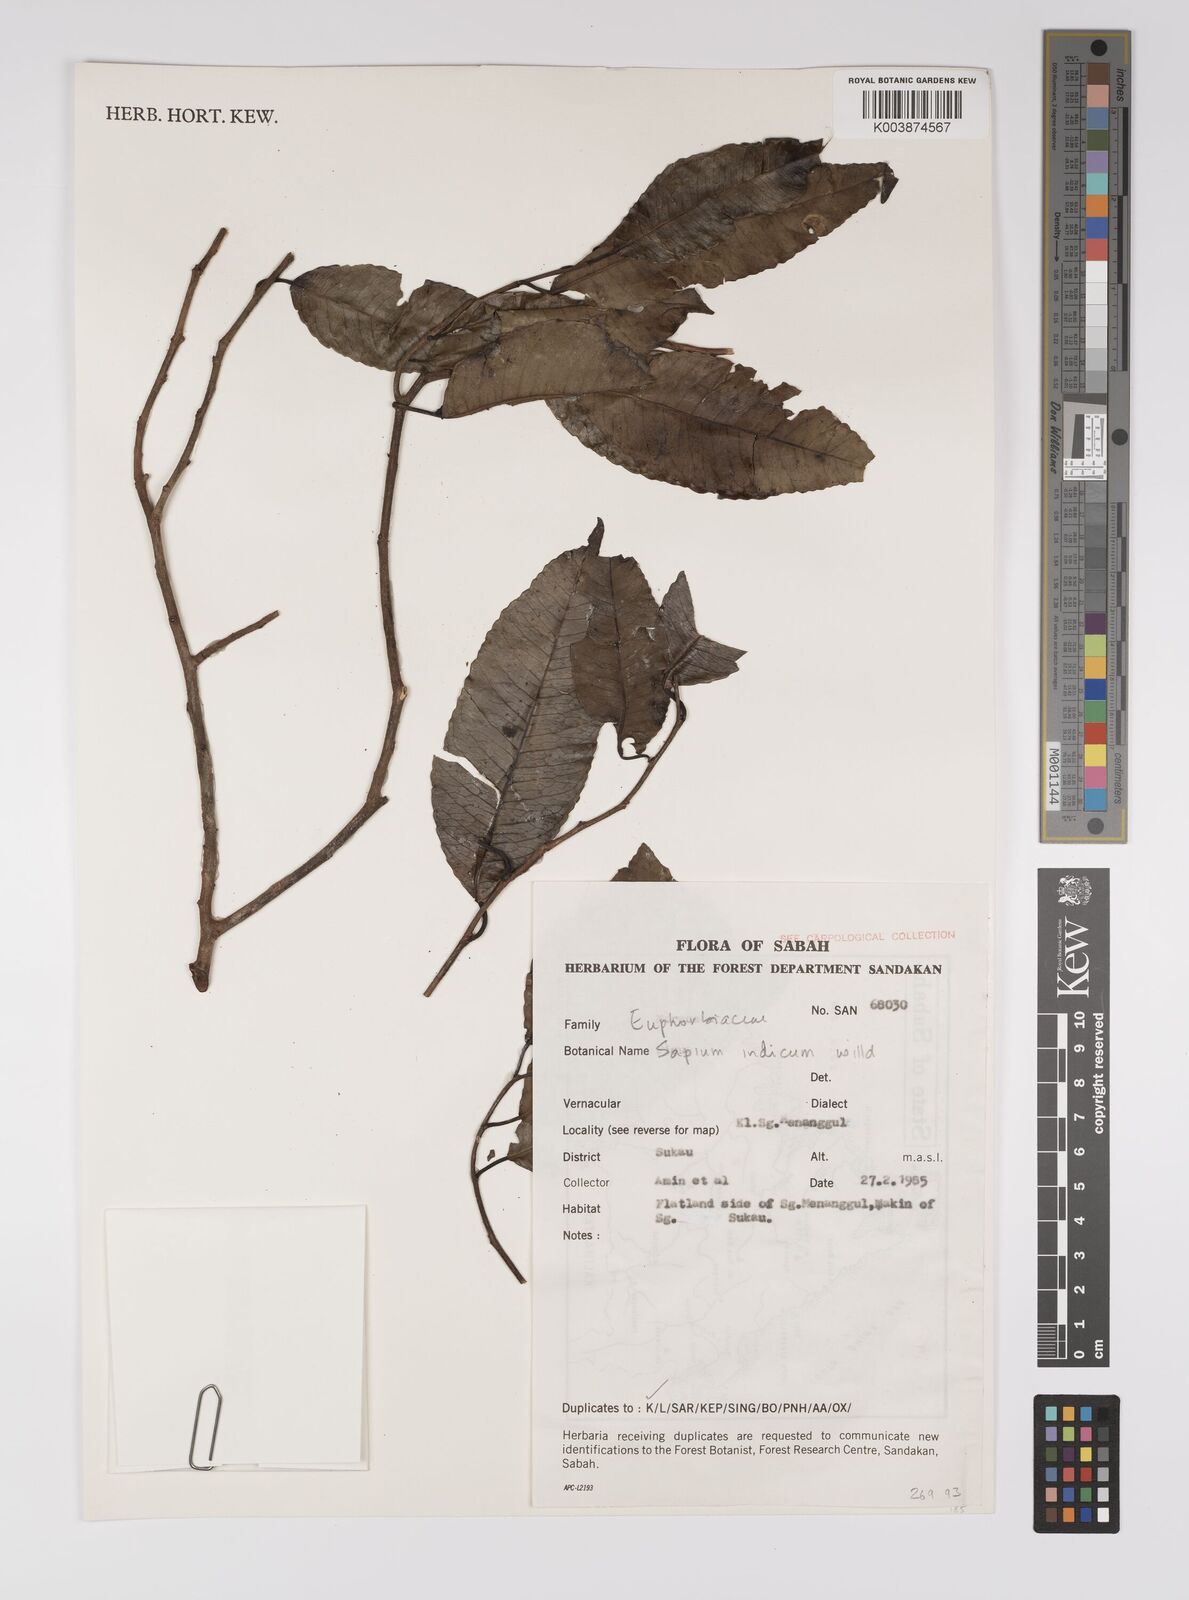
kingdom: Plantae
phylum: Tracheophyta
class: Magnoliopsida
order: Malpighiales
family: Euphorbiaceae
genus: Shirakiopsis
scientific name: Shirakiopsis indica
